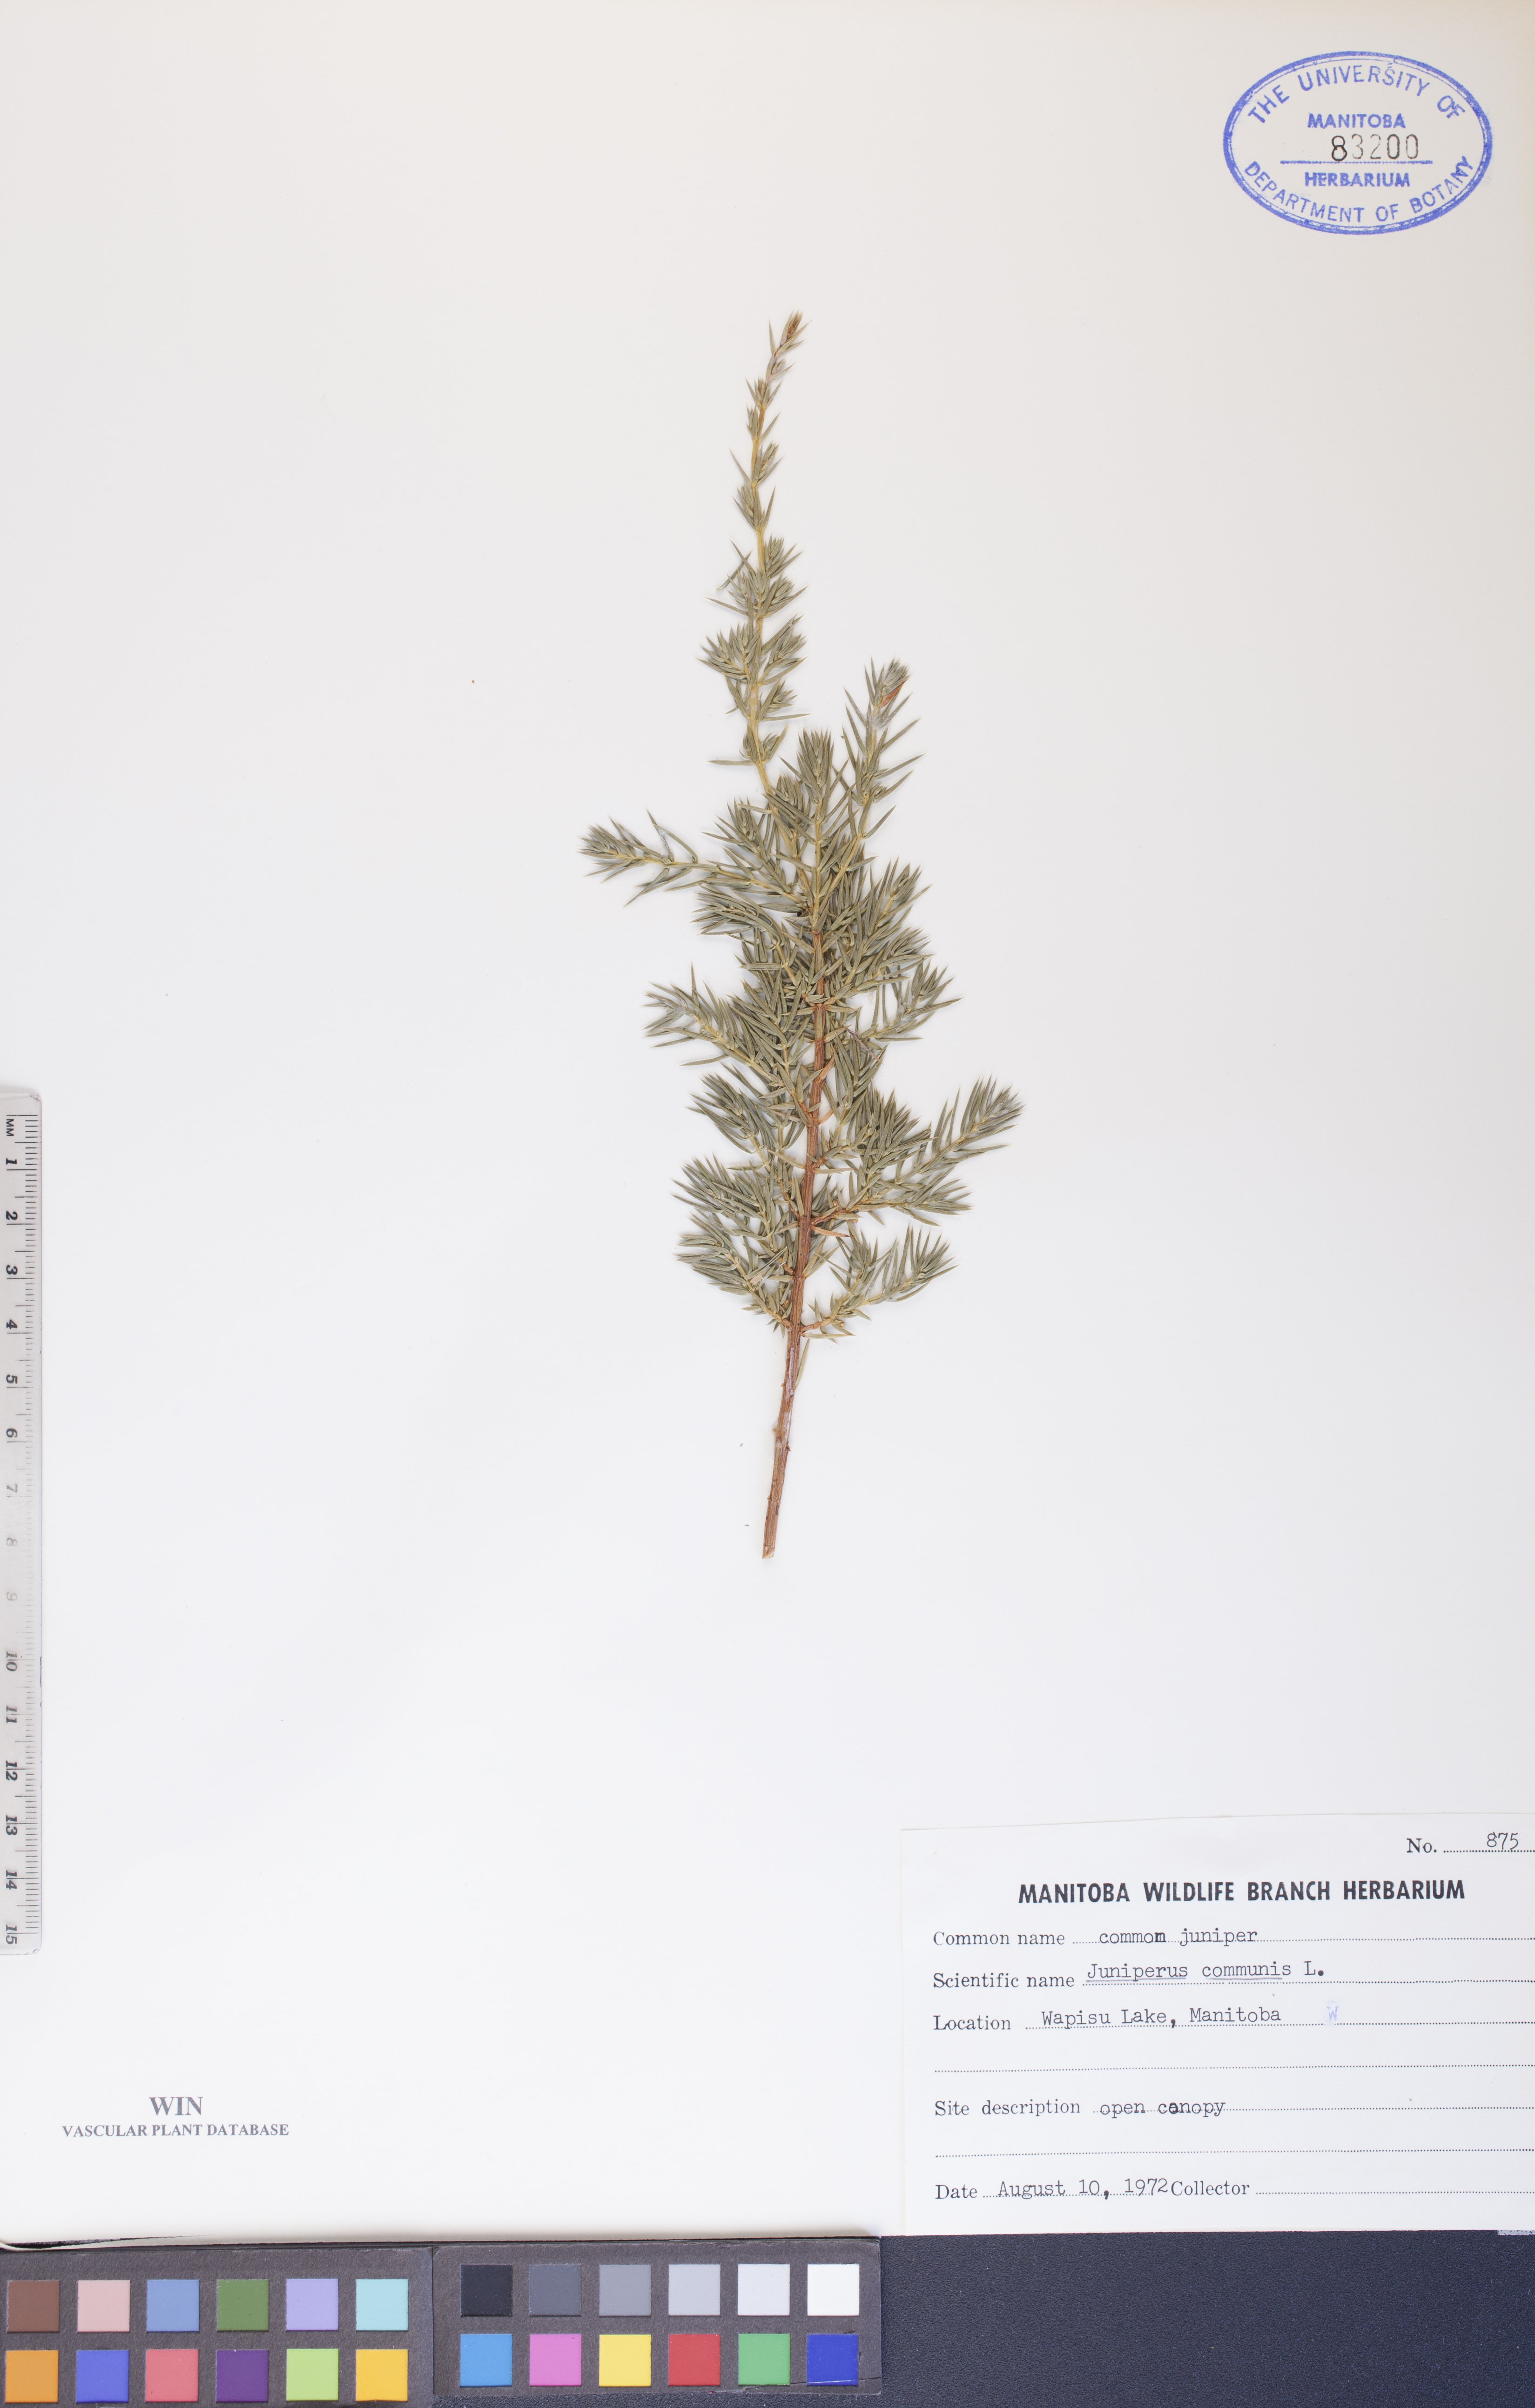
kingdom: Plantae
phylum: Tracheophyta
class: Pinopsida
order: Pinales
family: Cupressaceae
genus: Juniperus
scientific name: Juniperus communis
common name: Common juniper
